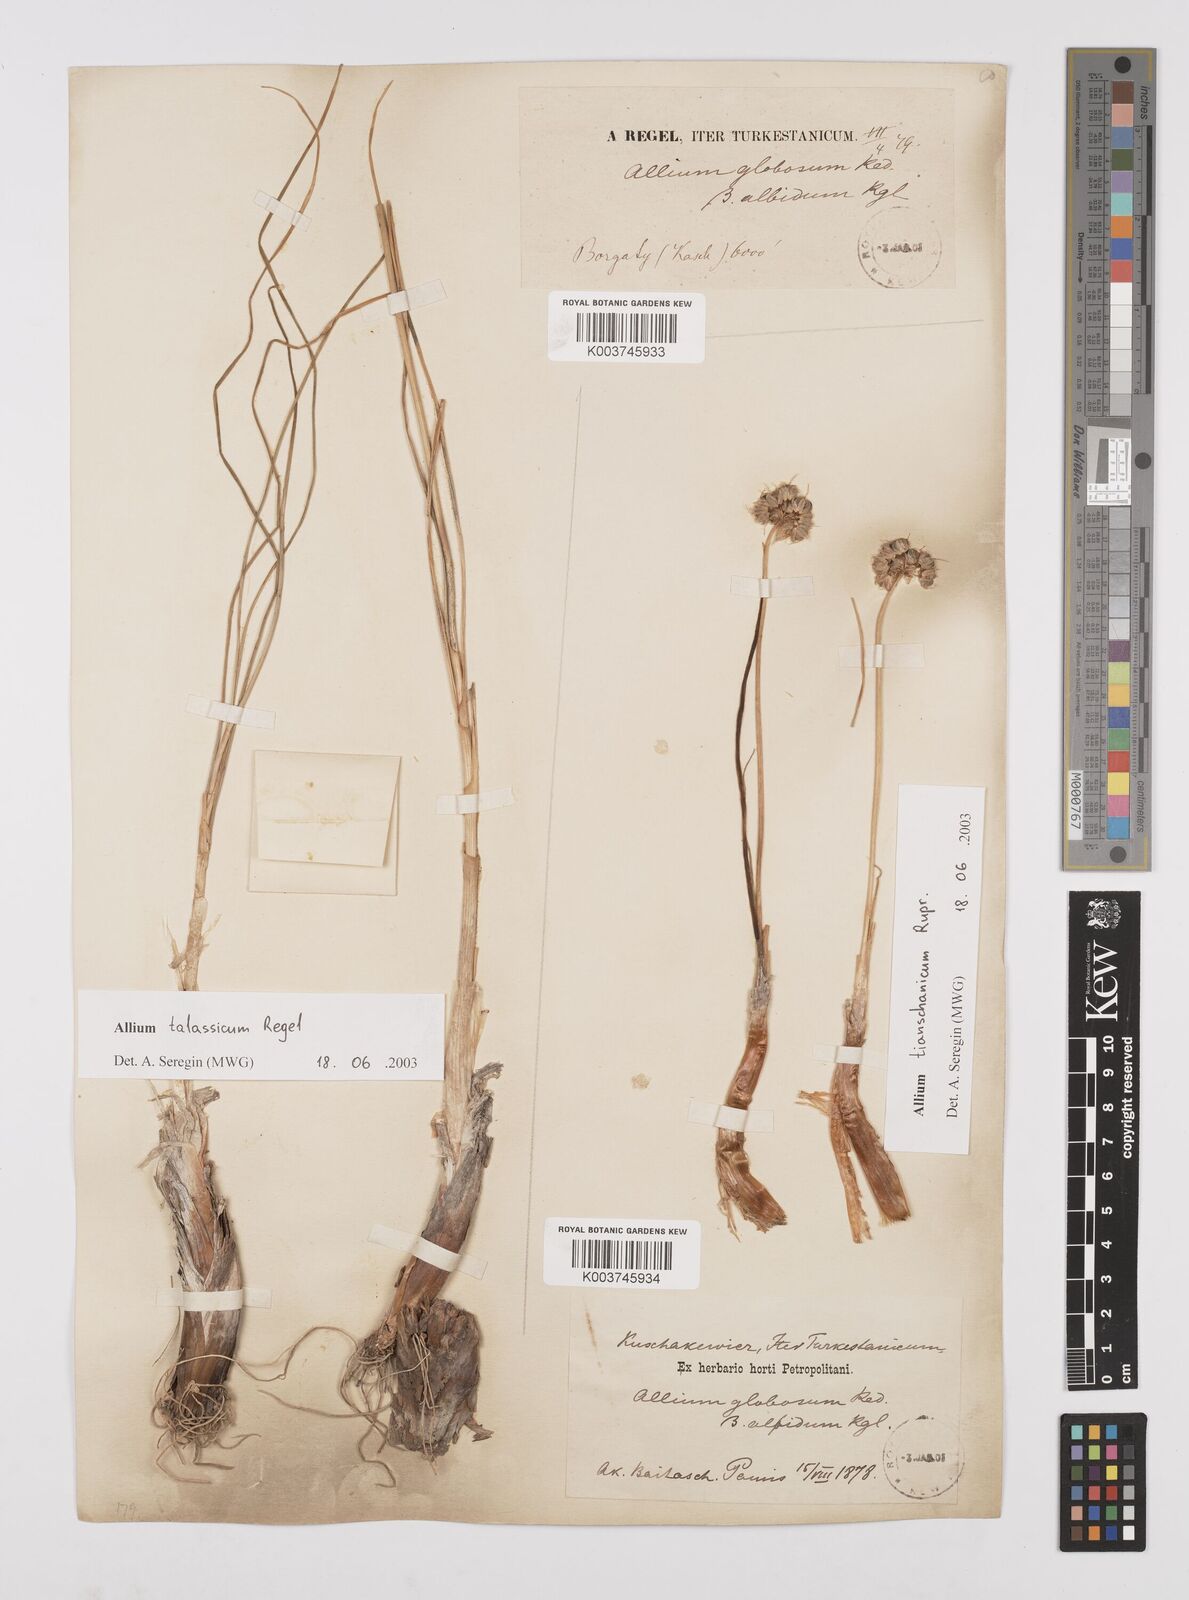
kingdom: Plantae
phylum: Tracheophyta
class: Liliopsida
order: Asparagales
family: Amaryllidaceae
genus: Allium
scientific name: Allium talassicum
